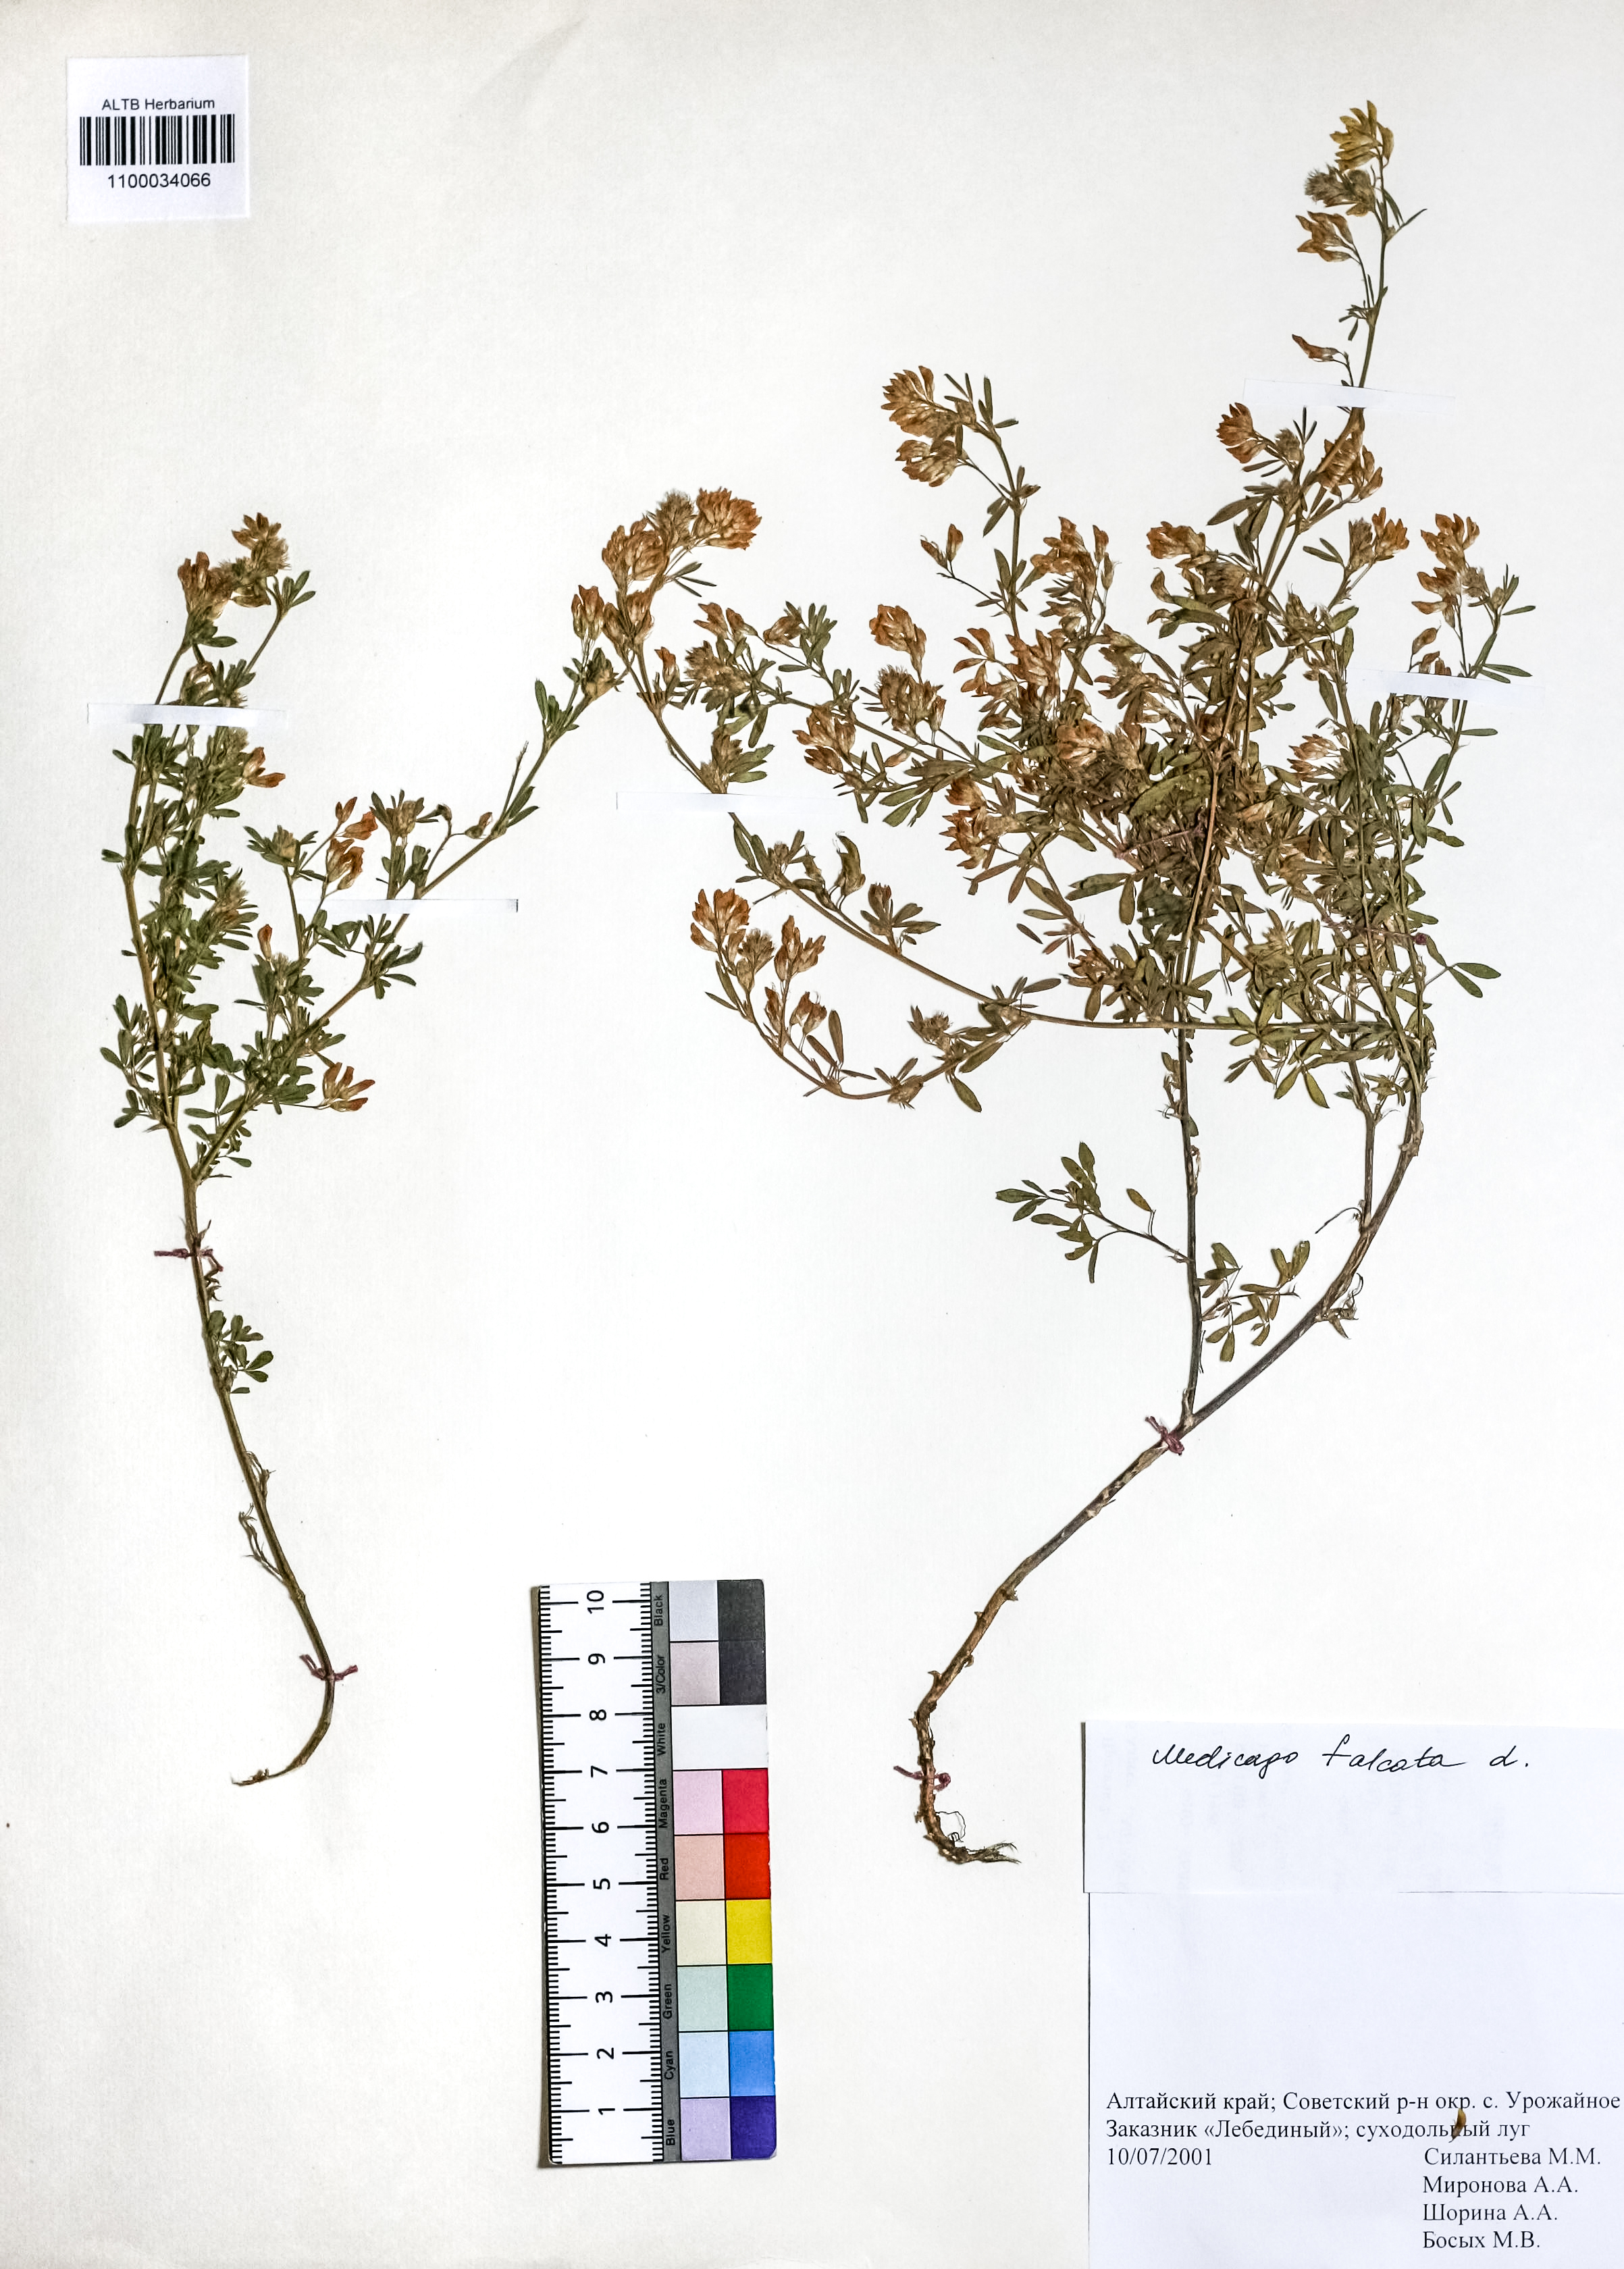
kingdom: Plantae
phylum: Tracheophyta
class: Magnoliopsida
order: Fabales
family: Fabaceae
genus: Medicago
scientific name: Medicago falcata
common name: Sickle medick
